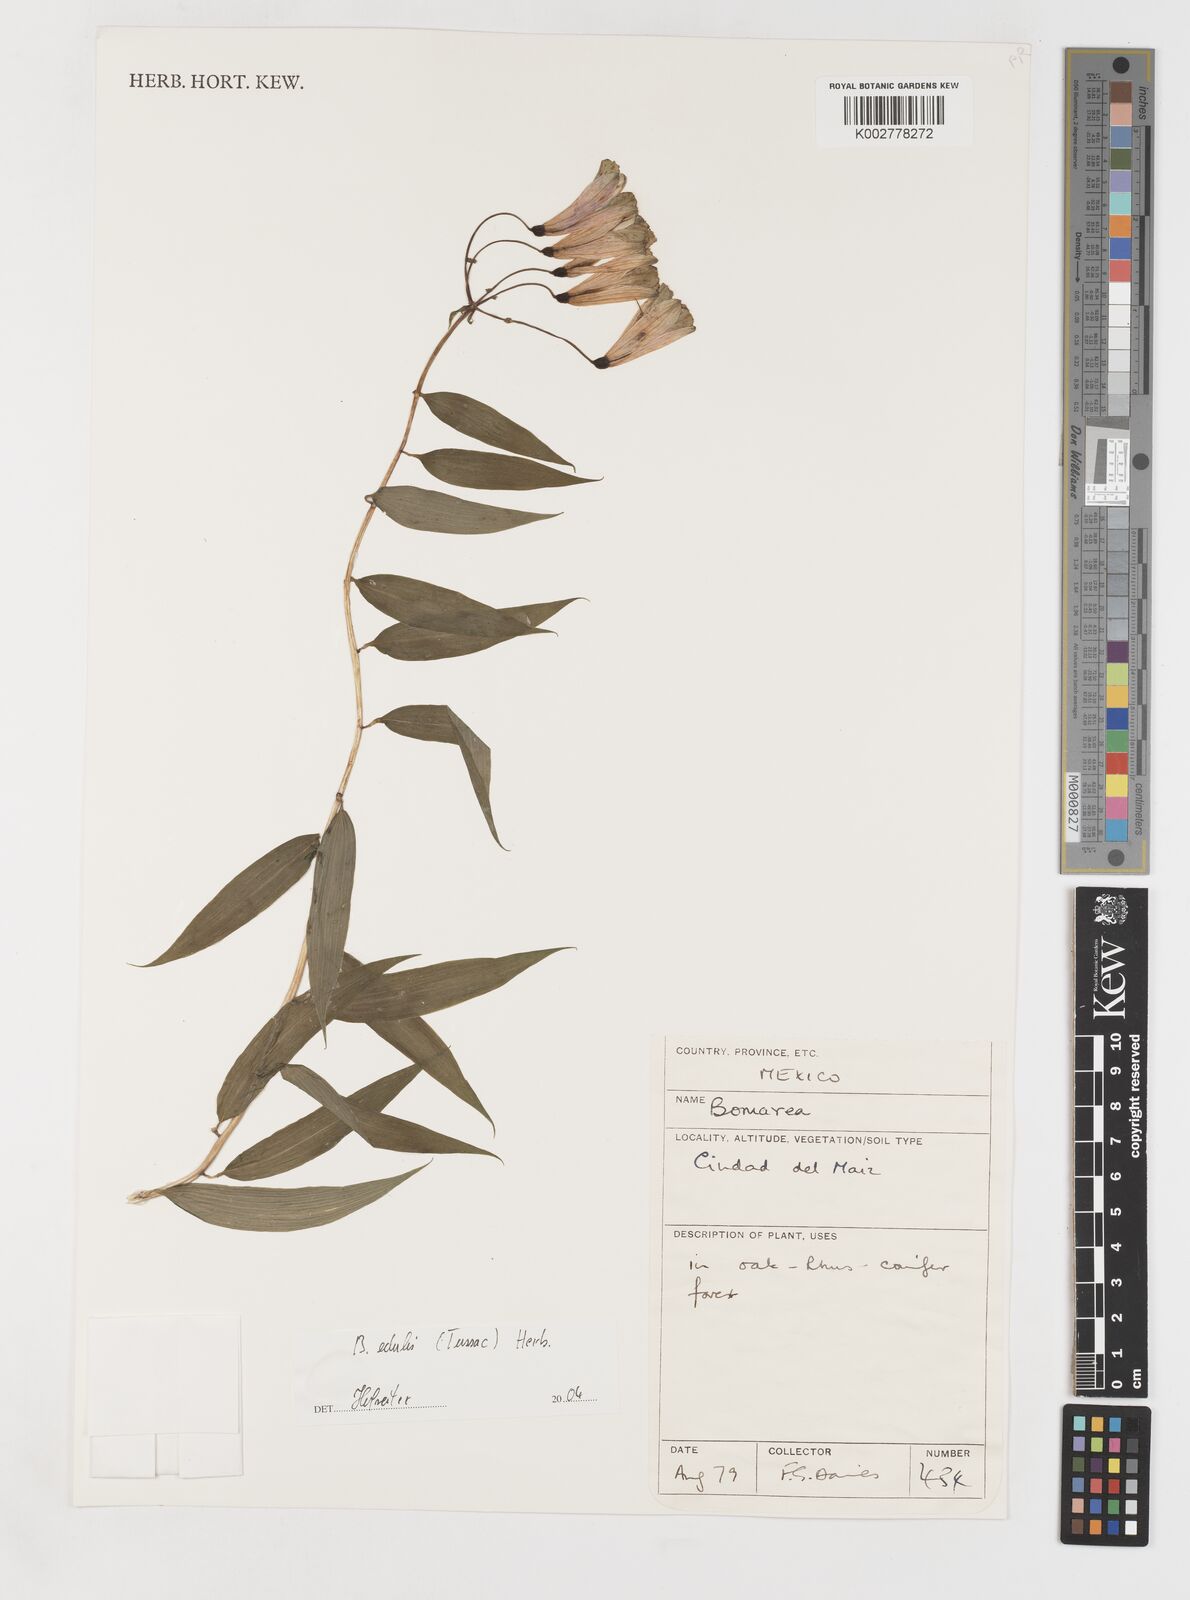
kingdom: Plantae
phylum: Tracheophyta
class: Liliopsida
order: Liliales
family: Alstroemeriaceae
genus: Bomarea
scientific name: Bomarea edulis
